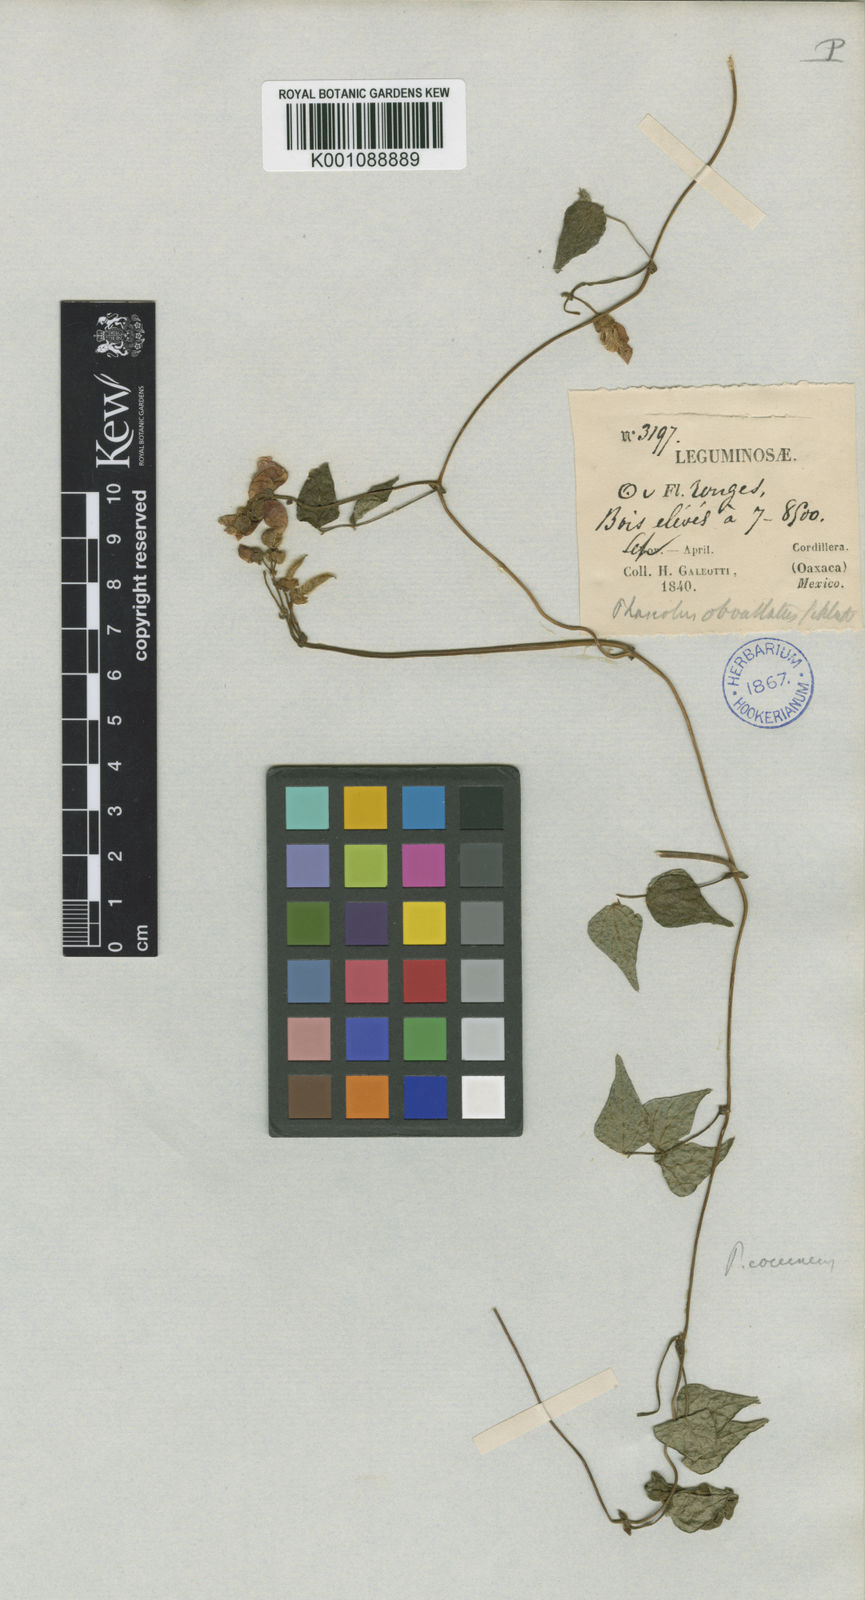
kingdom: Plantae
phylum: Tracheophyta
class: Magnoliopsida
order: Fabales
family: Fabaceae
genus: Phaseolus
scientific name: Phaseolus coccineus
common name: Runner bean
